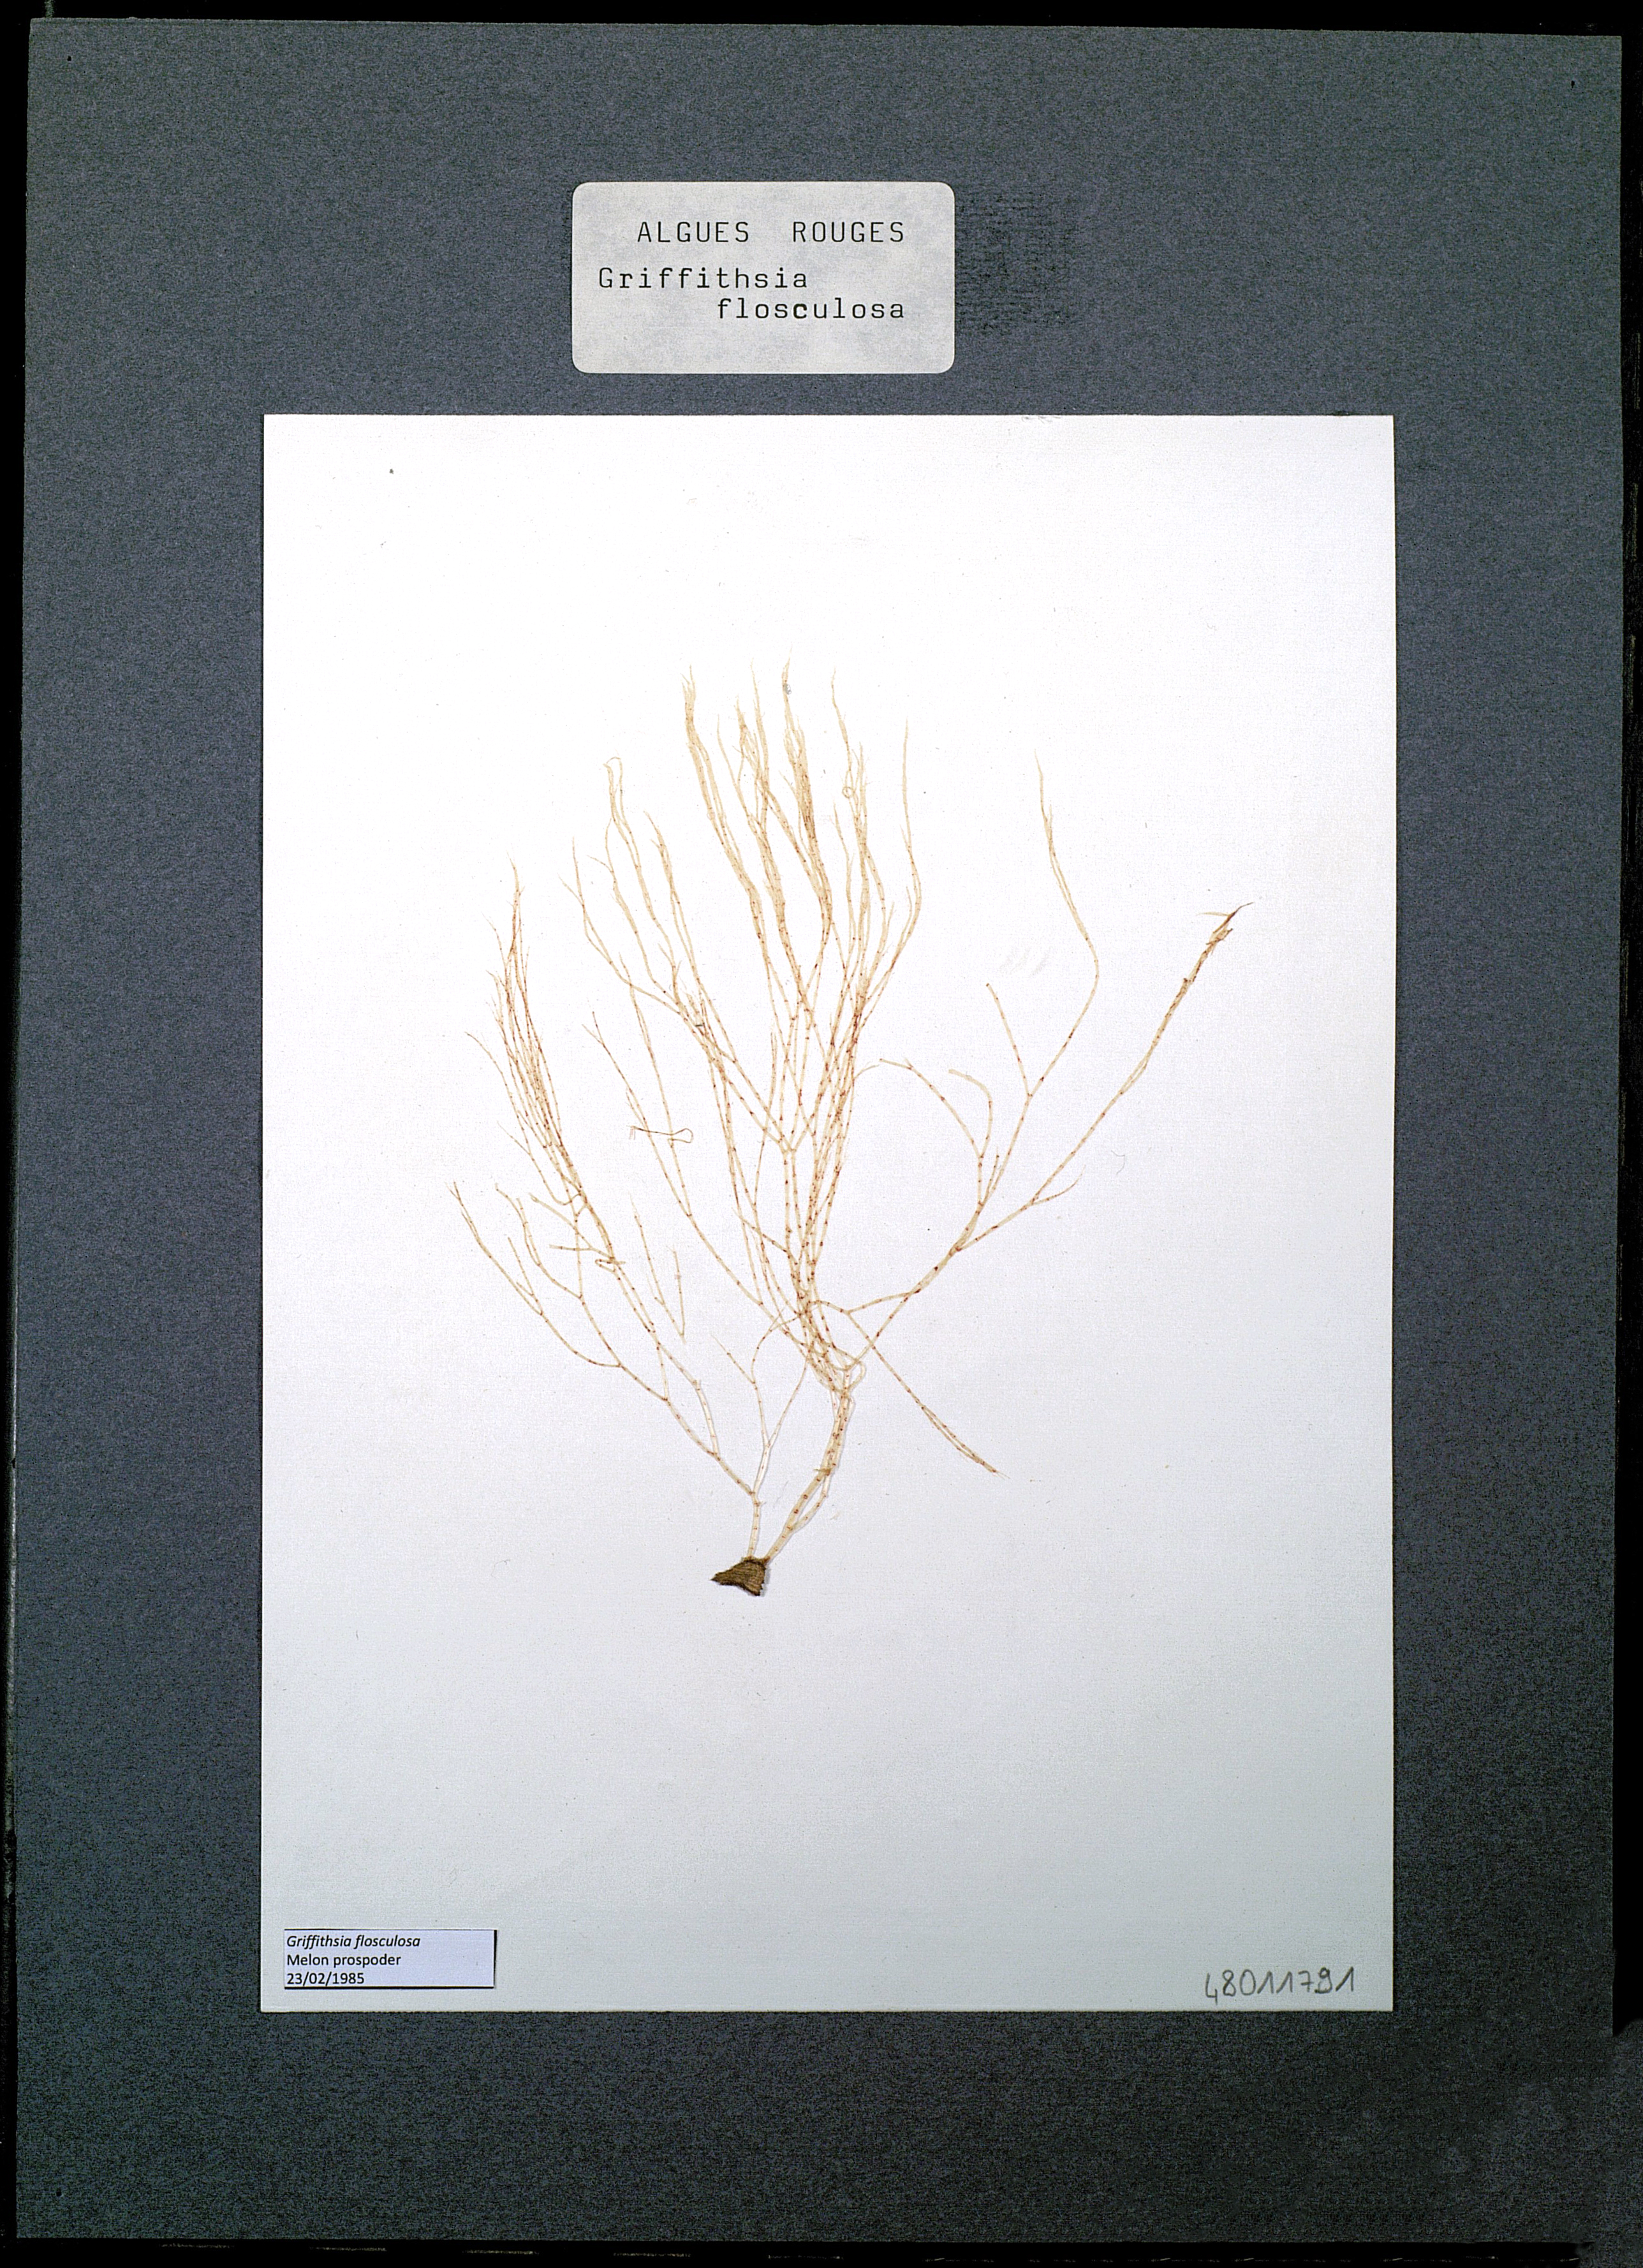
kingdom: Plantae
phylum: Rhodophyta
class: Florideophyceae
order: Ceramiales
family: Wrangeliaceae
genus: Halurus
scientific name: Halurus flosculosus
